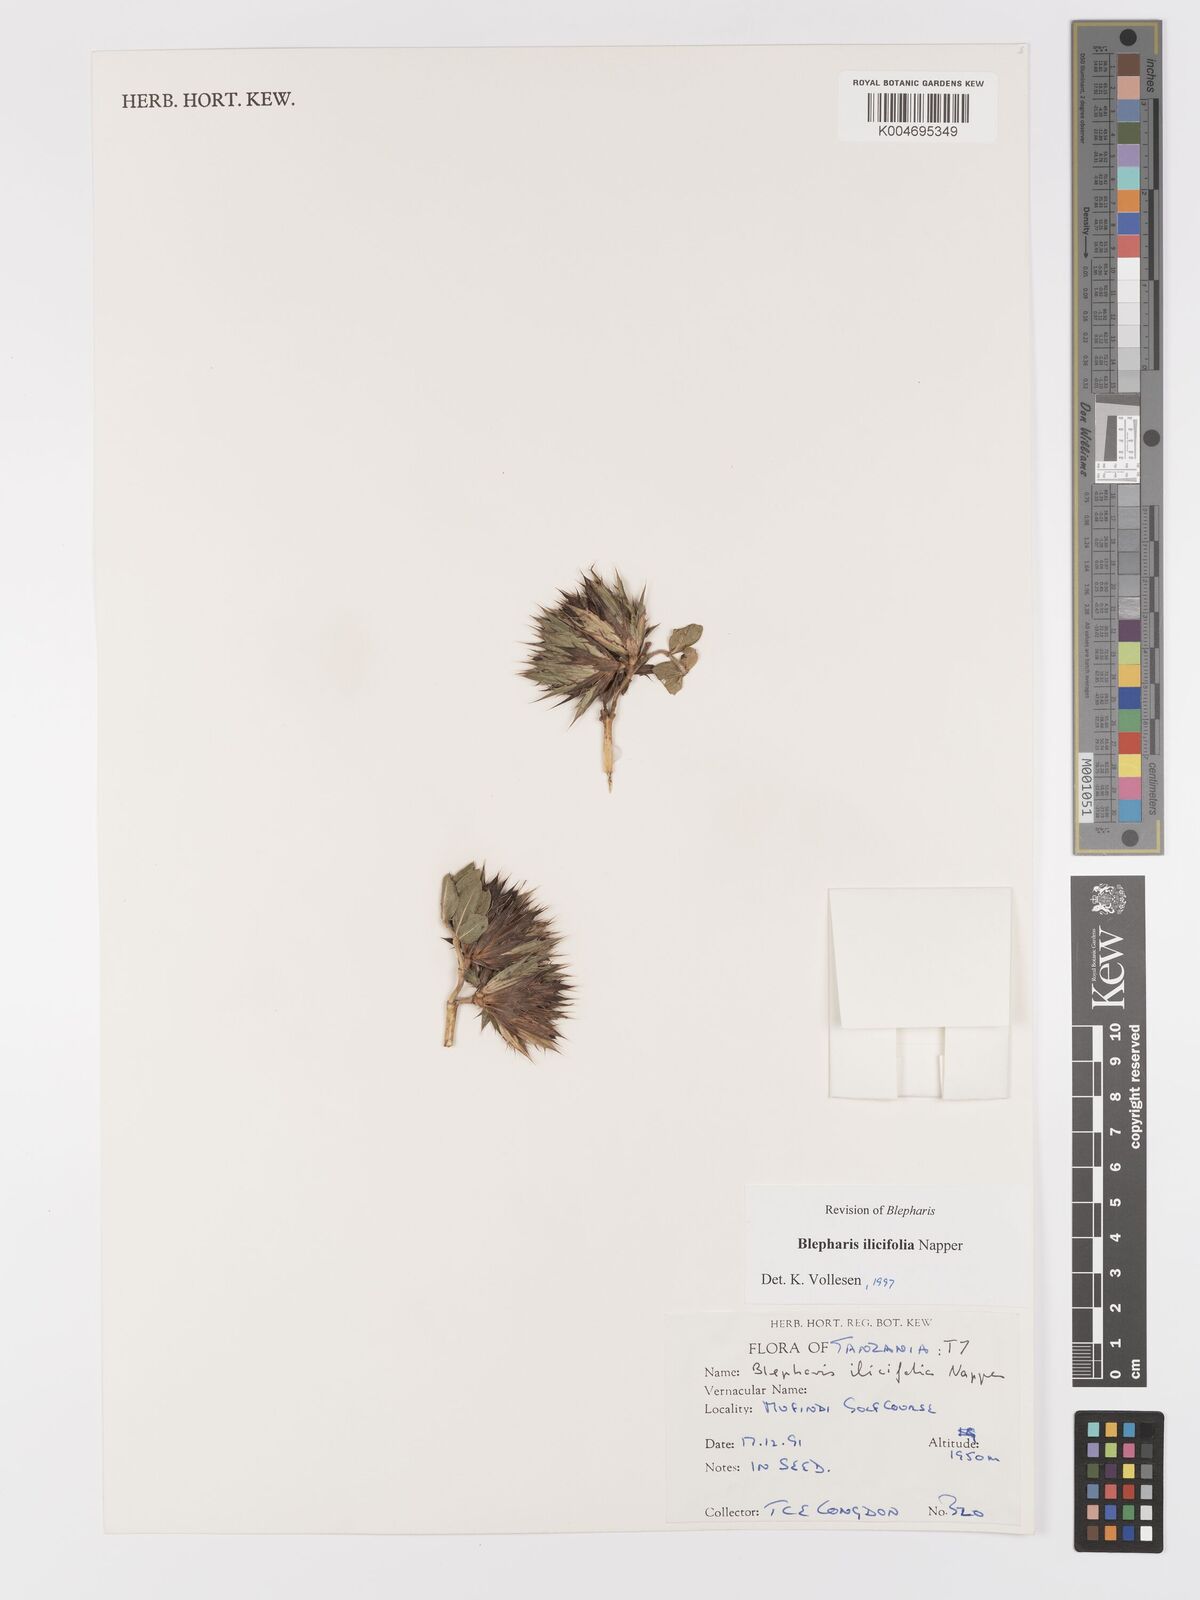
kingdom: Plantae
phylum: Tracheophyta
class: Magnoliopsida
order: Lamiales
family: Acanthaceae
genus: Blepharis
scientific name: Blepharis ilicifolia
